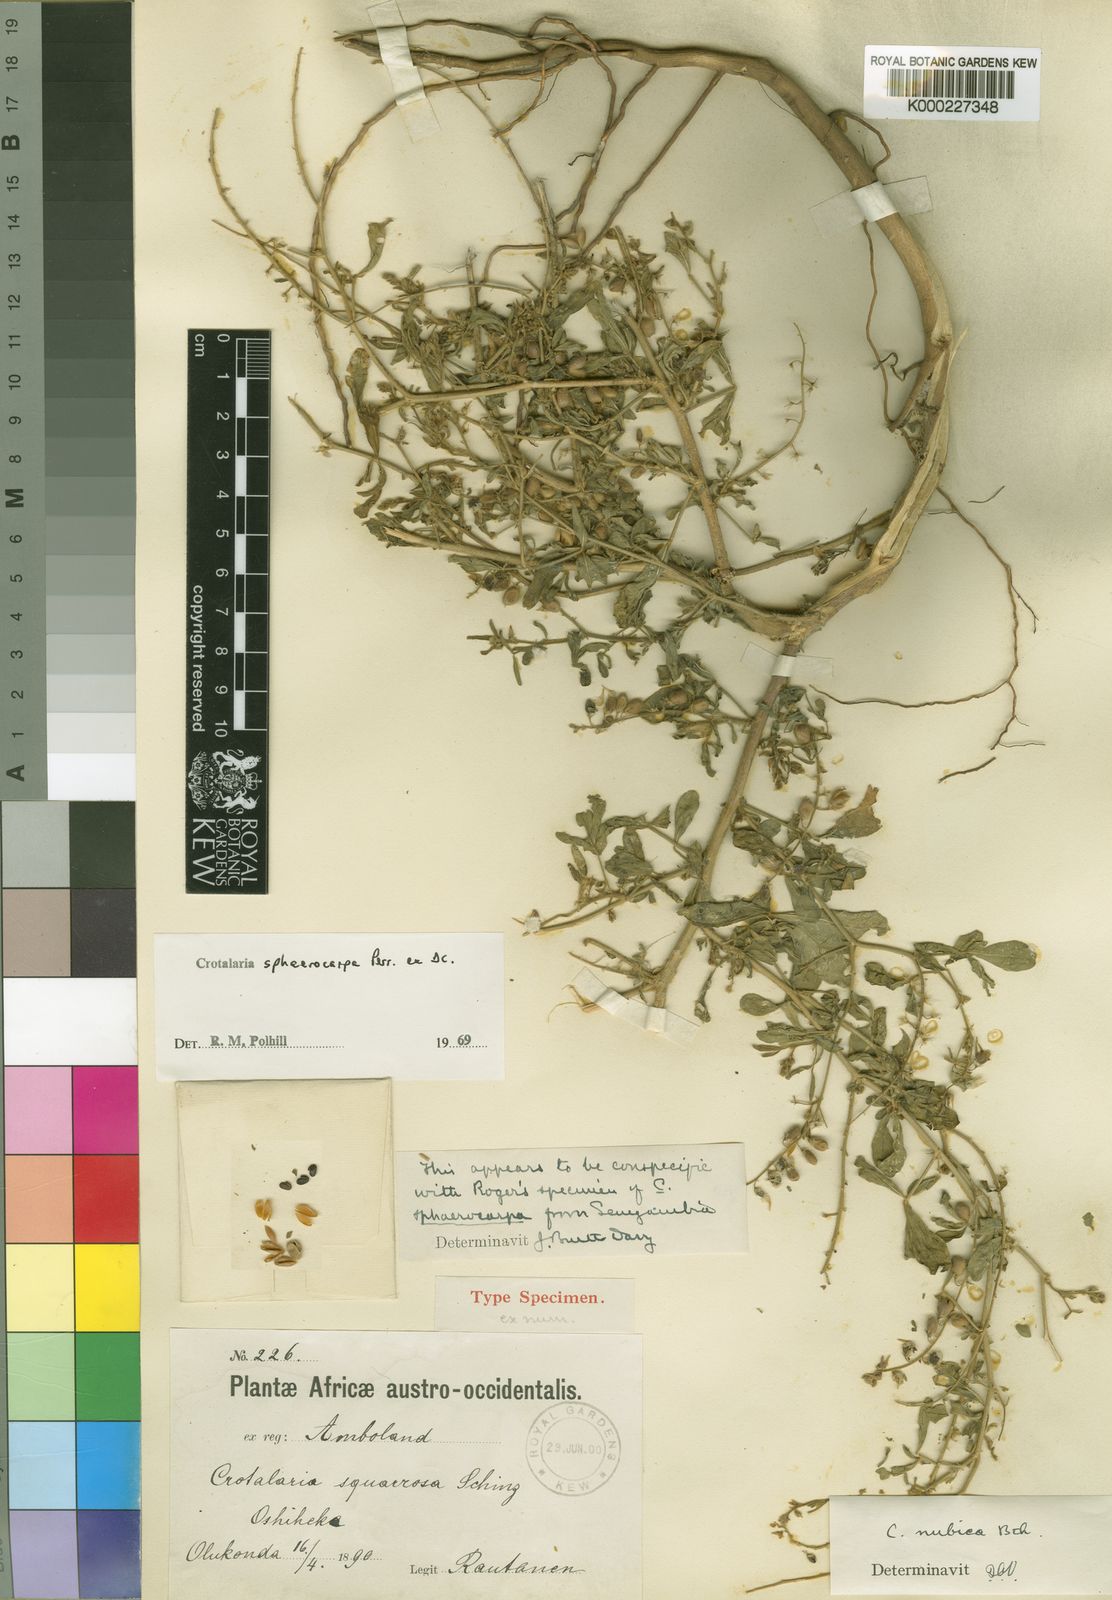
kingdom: Plantae
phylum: Tracheophyta
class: Magnoliopsida
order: Fabales
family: Fabaceae
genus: Crotalaria
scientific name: Crotalaria sphaerocarpa
